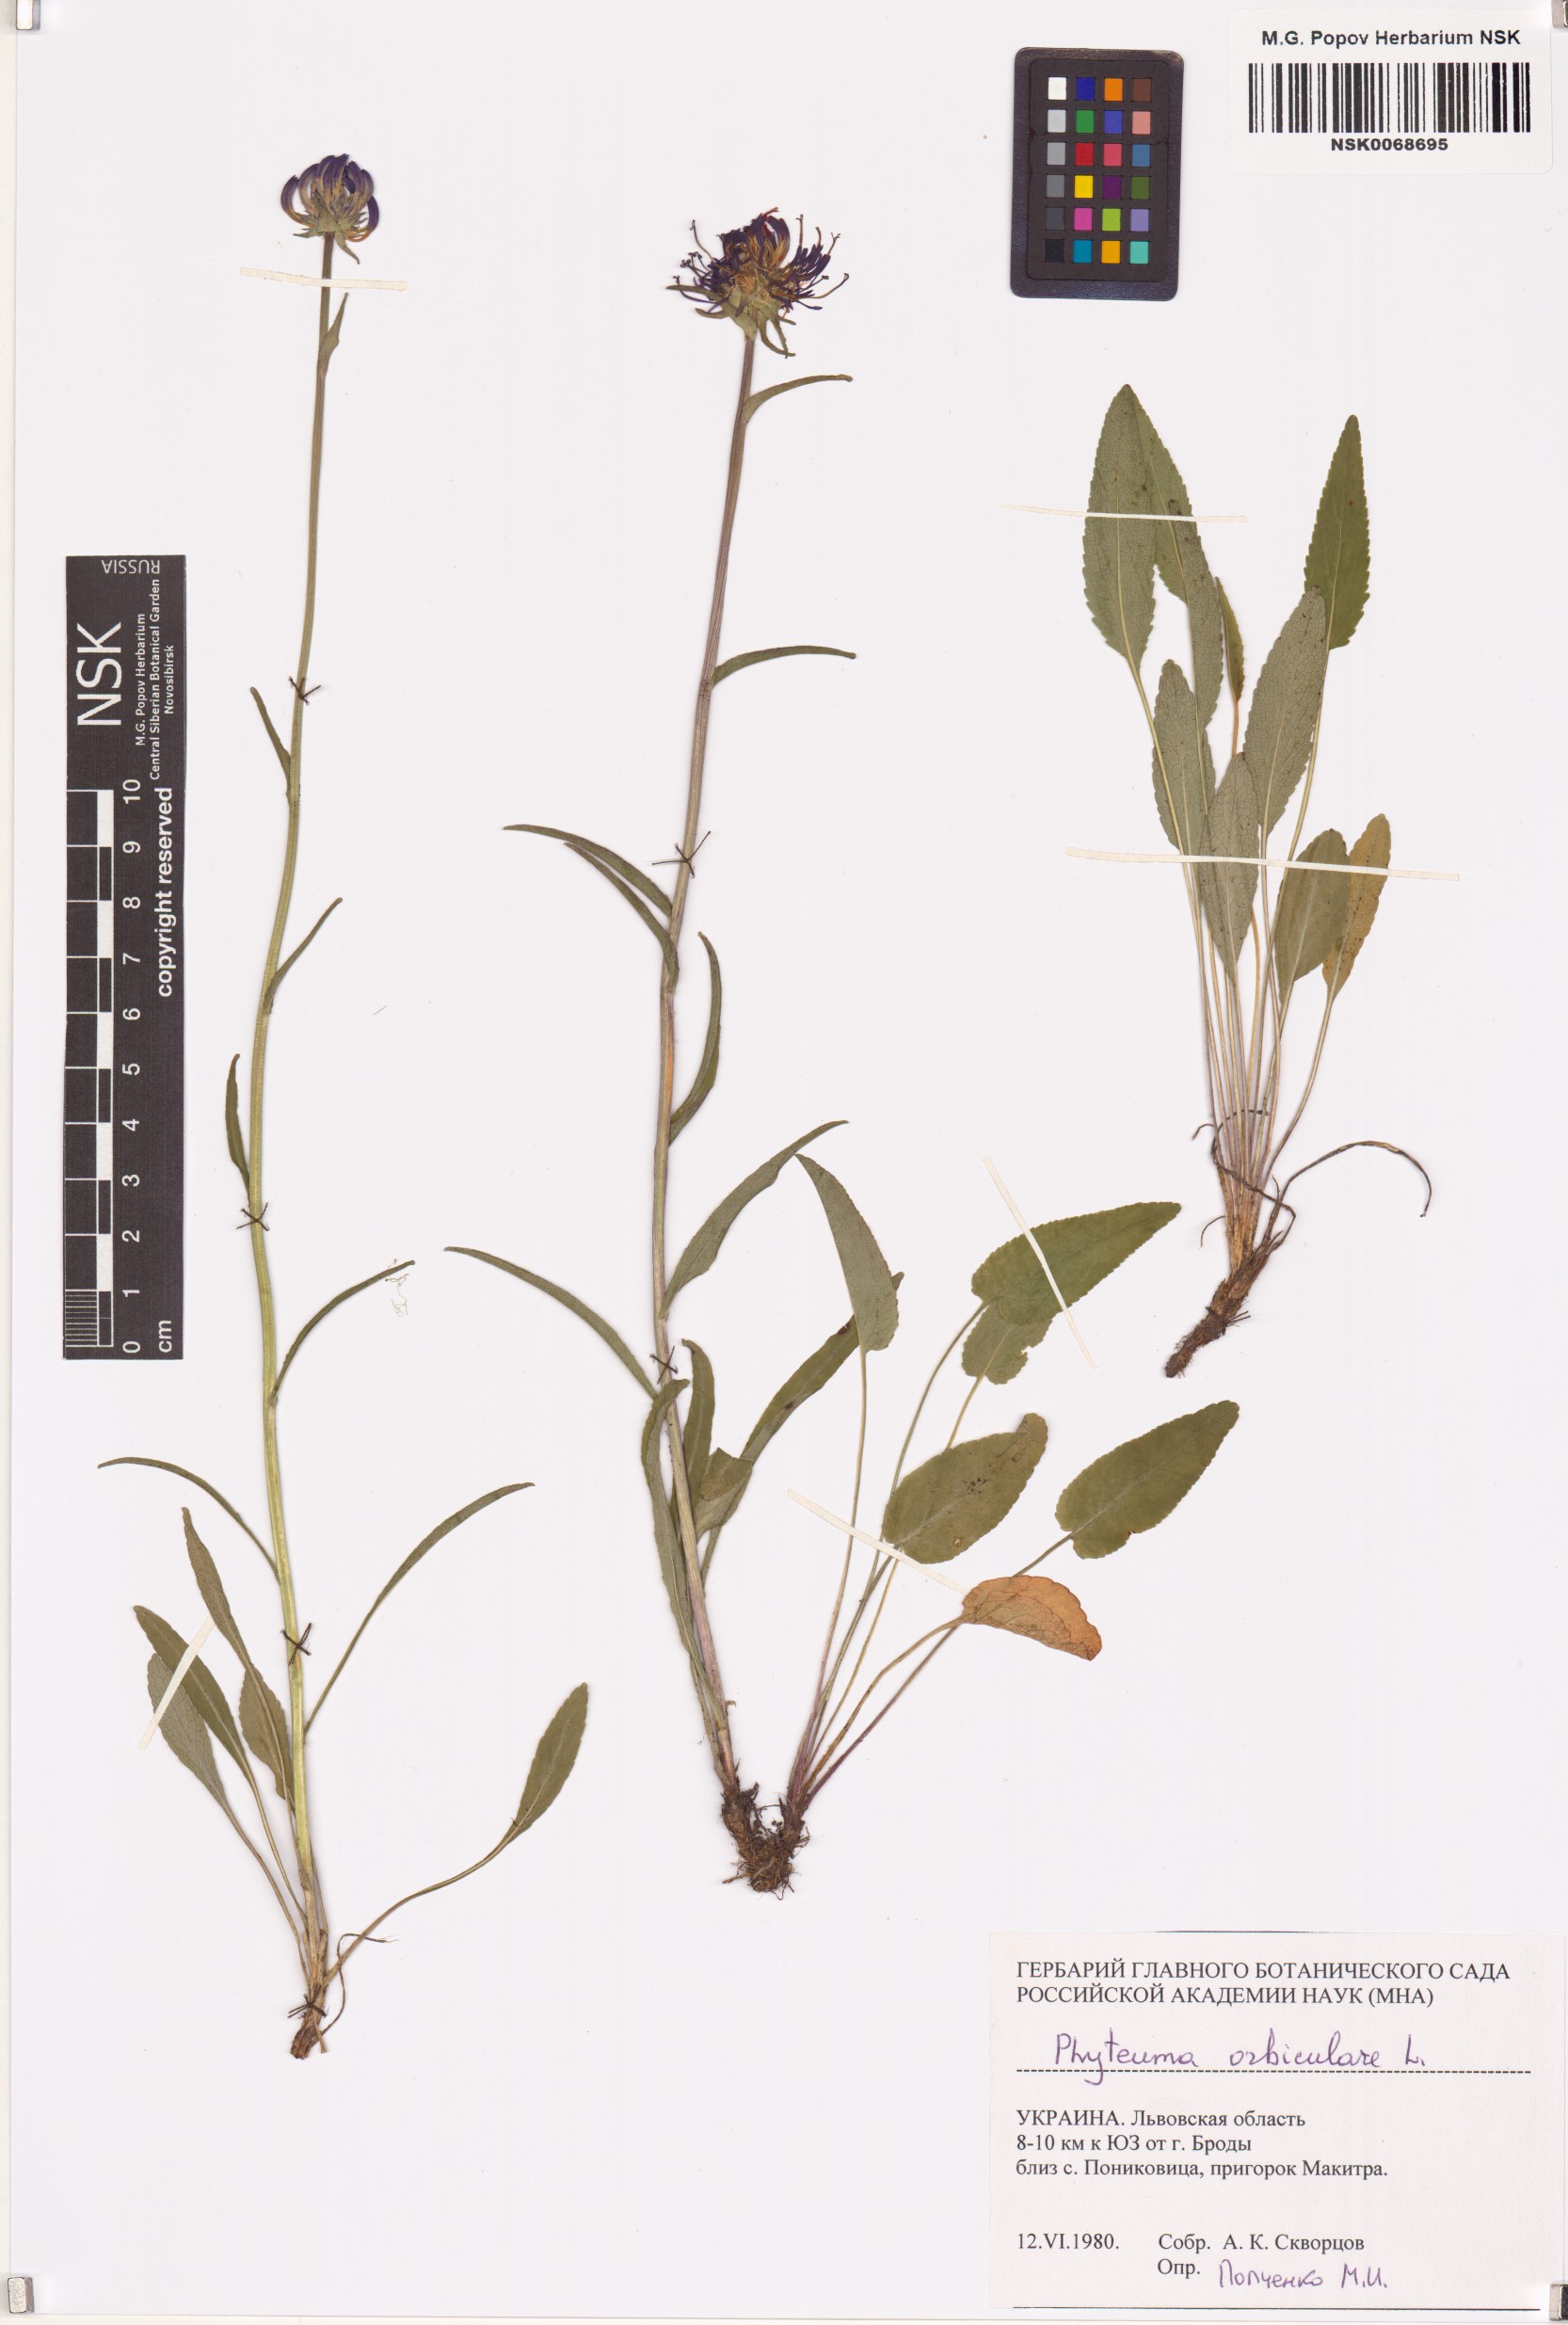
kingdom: Plantae
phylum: Tracheophyta
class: Magnoliopsida
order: Asterales
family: Campanulaceae
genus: Phyteuma
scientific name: Phyteuma orbiculare
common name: Round-headed rampion
